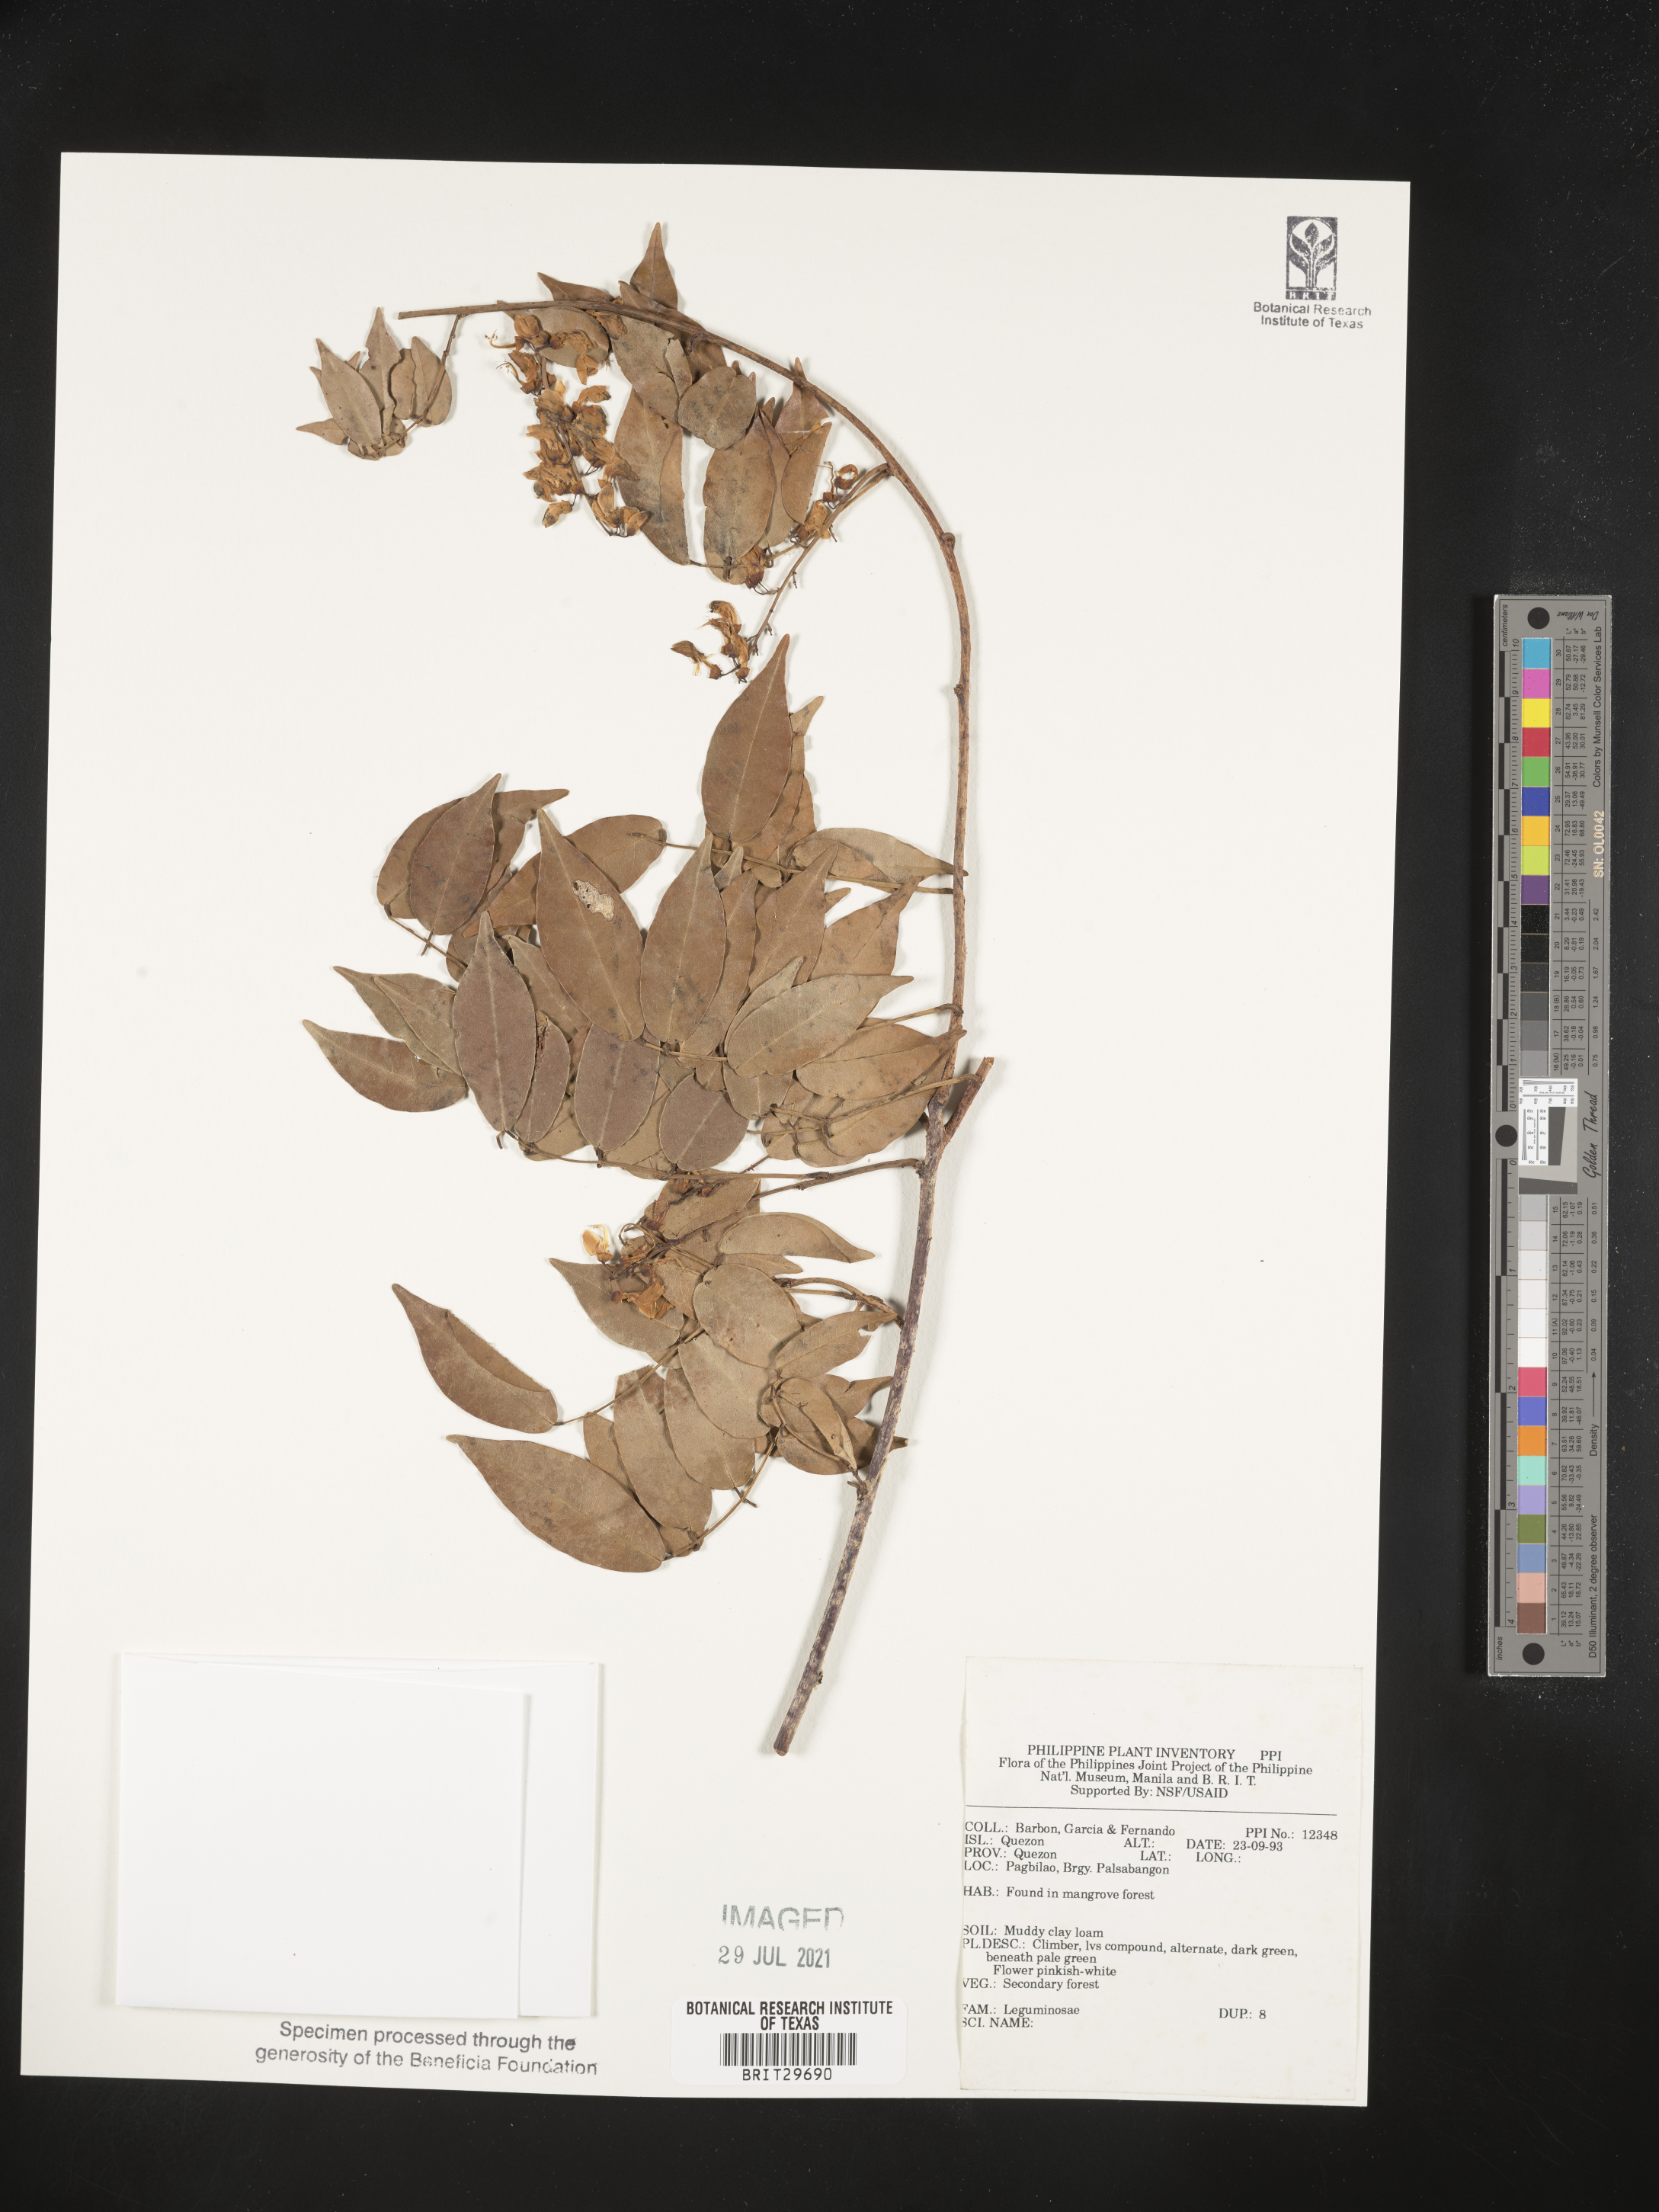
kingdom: Plantae
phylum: Tracheophyta
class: Magnoliopsida
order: Fabales
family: Fabaceae
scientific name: Fabaceae
